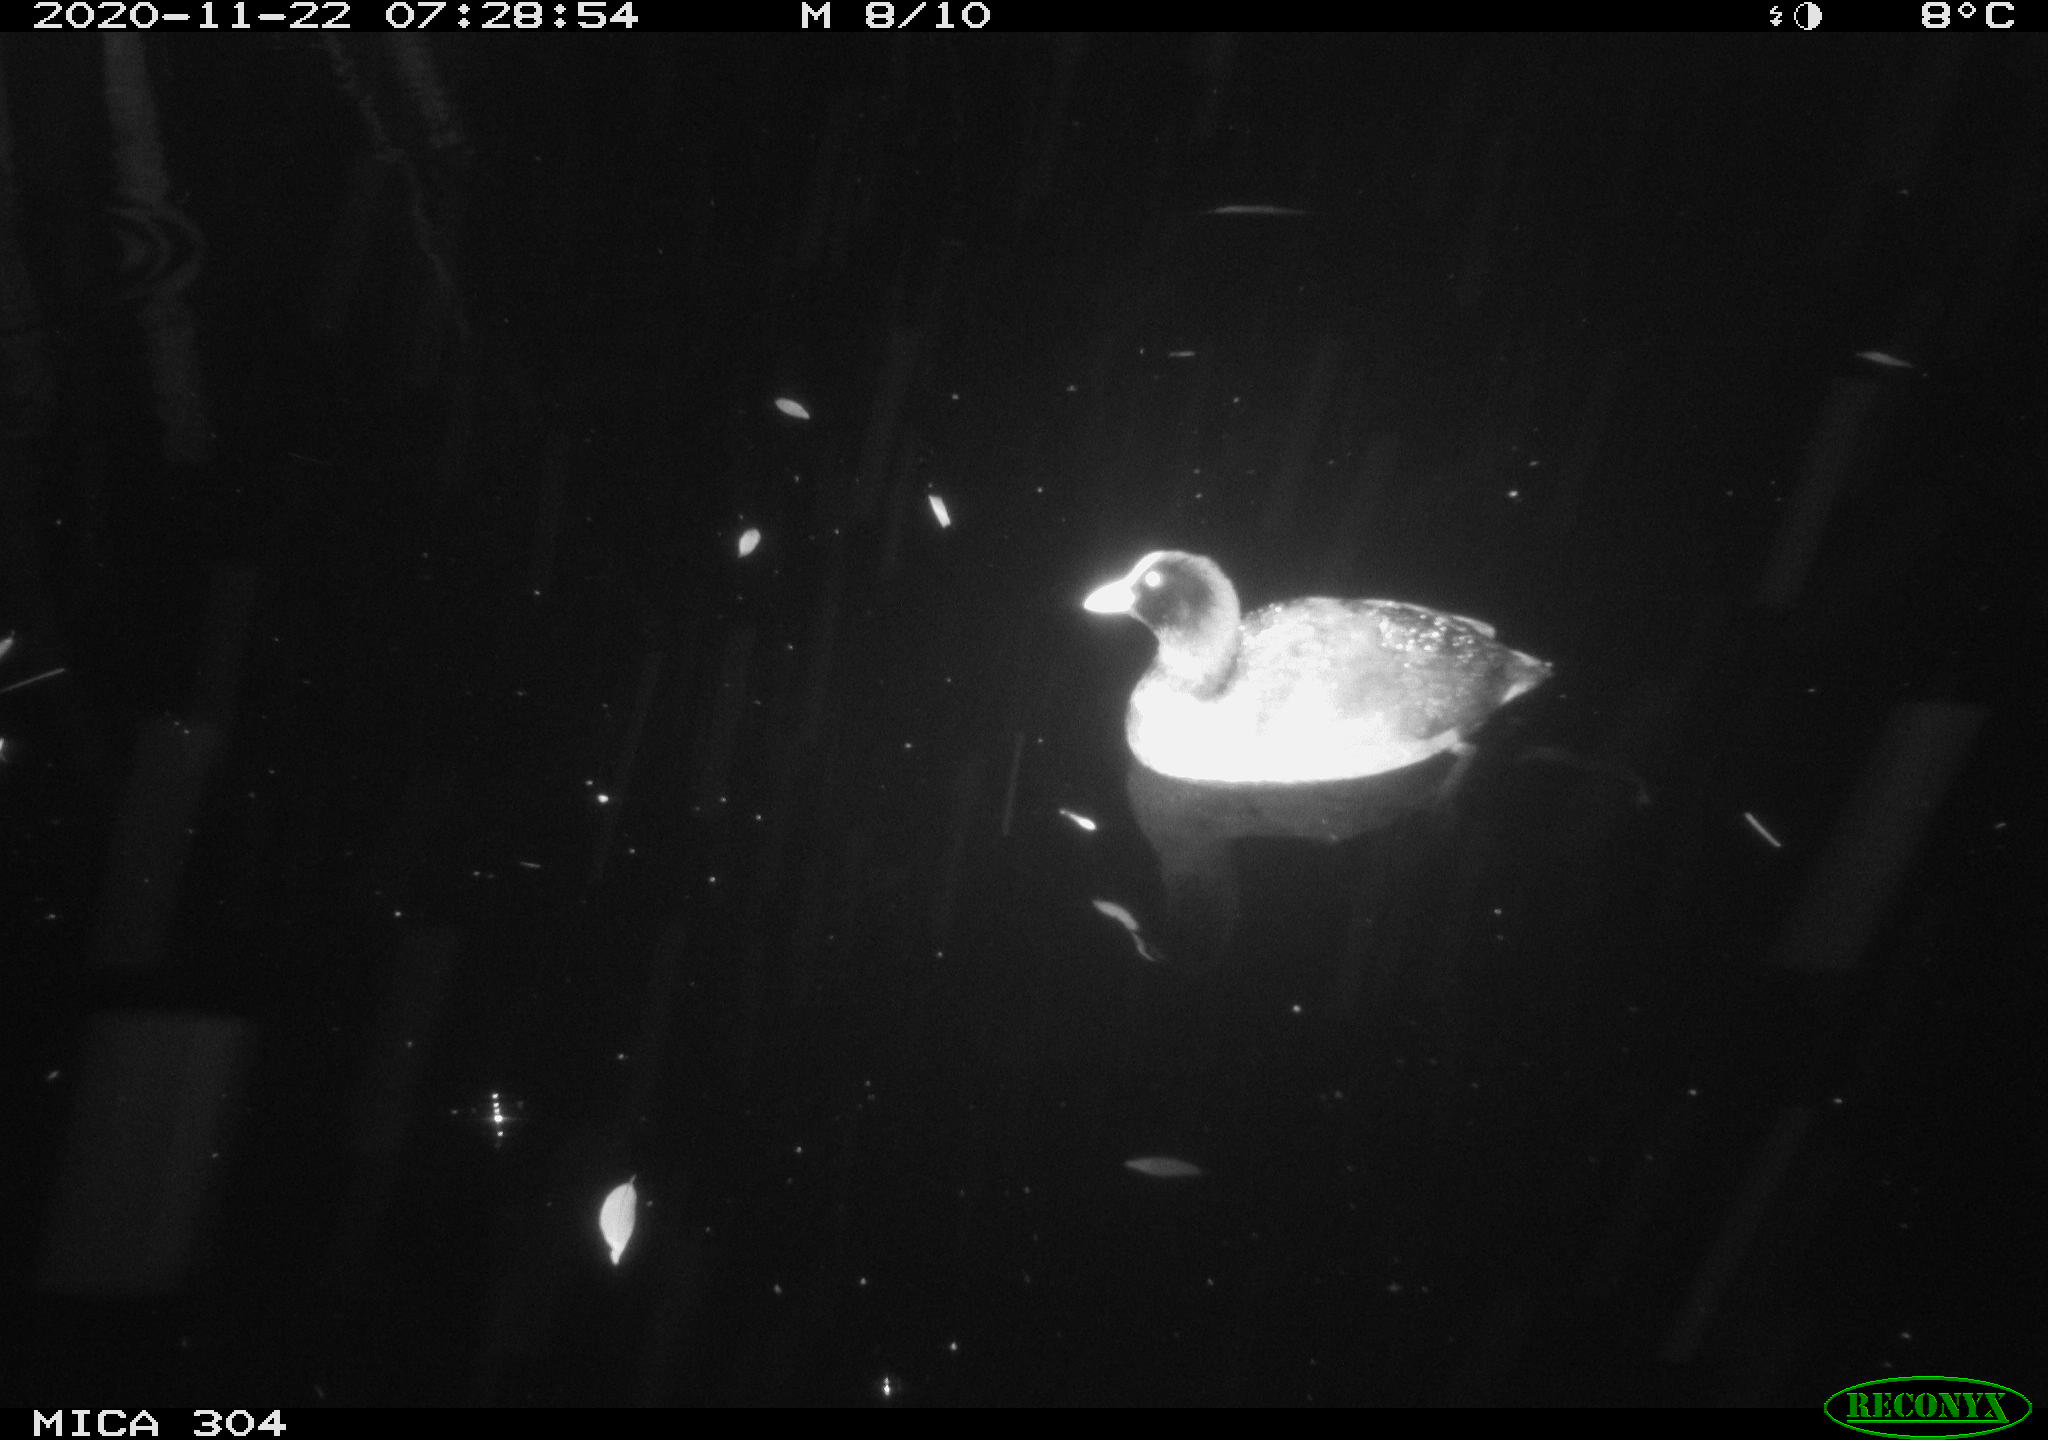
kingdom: Animalia
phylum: Chordata
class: Aves
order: Gruiformes
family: Rallidae
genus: Fulica
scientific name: Fulica atra
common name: Eurasian coot
